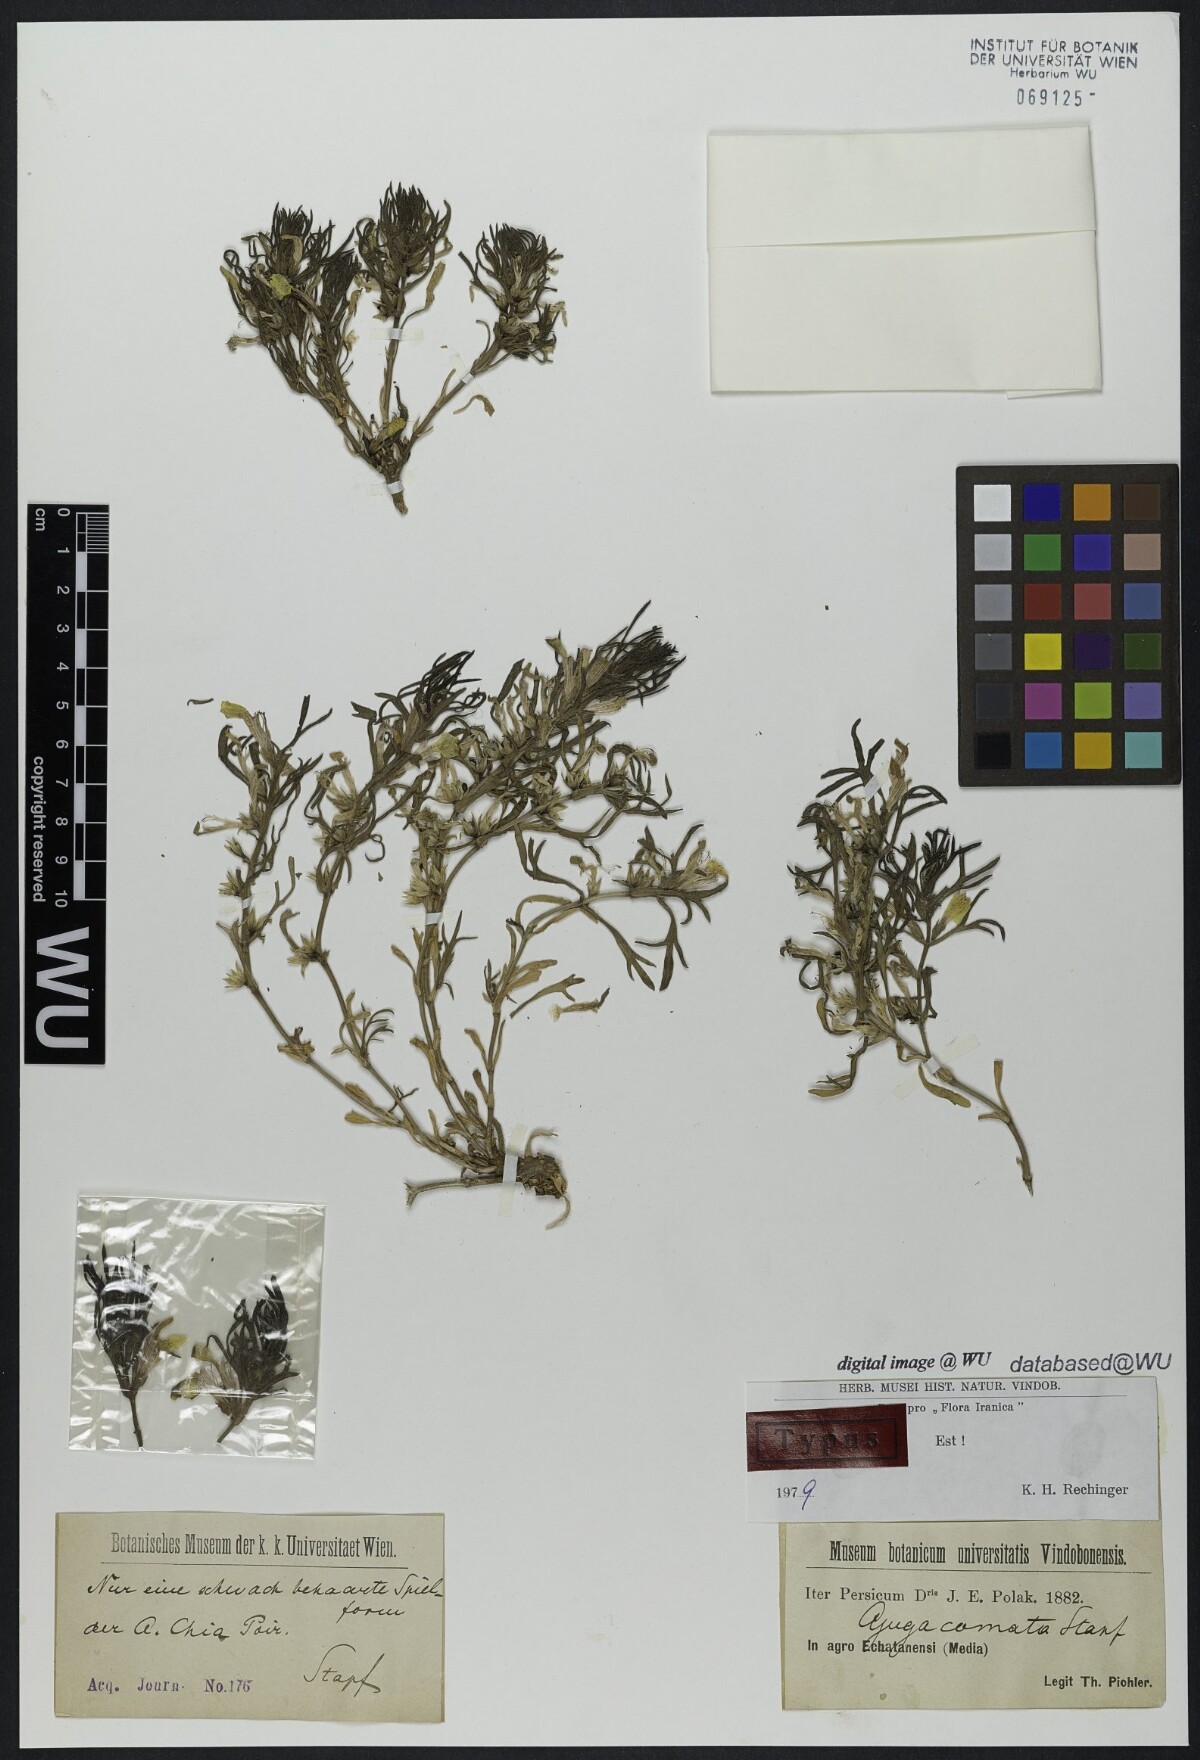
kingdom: Plantae
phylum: Tracheophyta
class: Magnoliopsida
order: Lamiales
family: Lamiaceae
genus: Ajuga
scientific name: Ajuga chamaepitys
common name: Ground-pine
